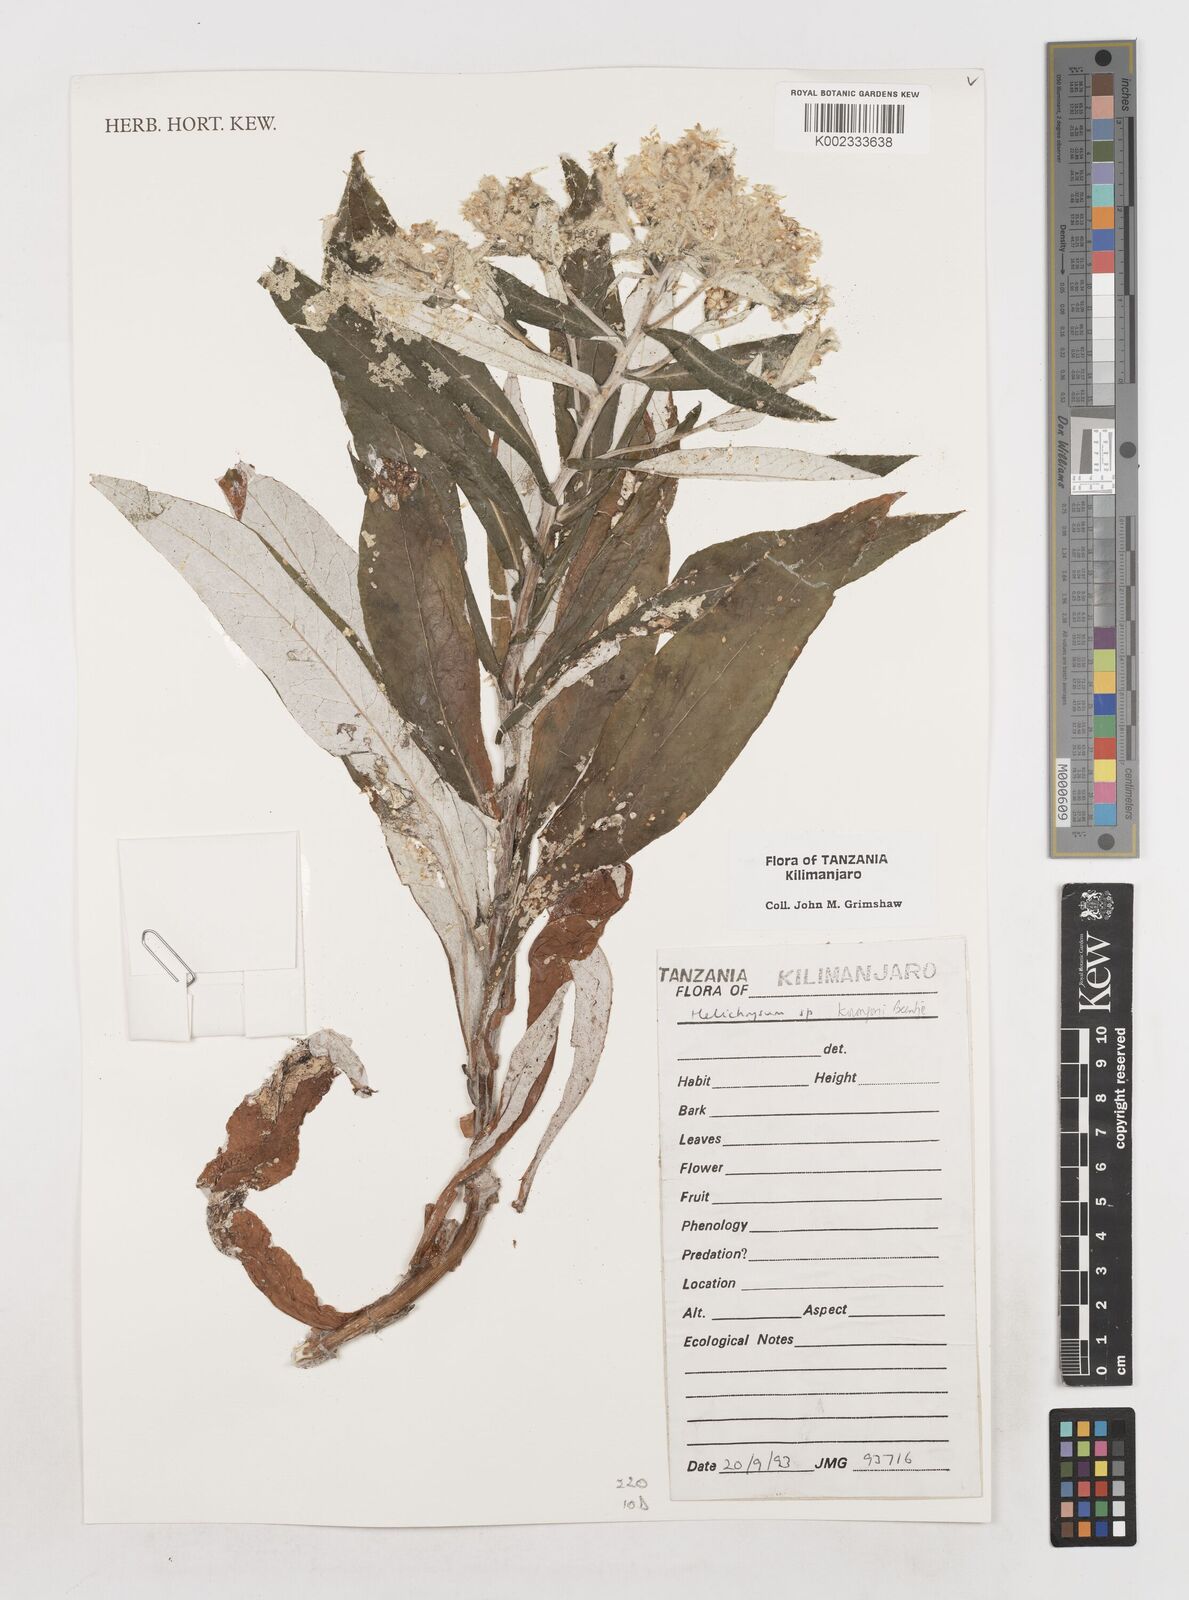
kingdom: Plantae
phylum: Tracheophyta
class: Magnoliopsida
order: Asterales
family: Asteraceae
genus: Helichrysum
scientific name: Helichrysum korongoni
